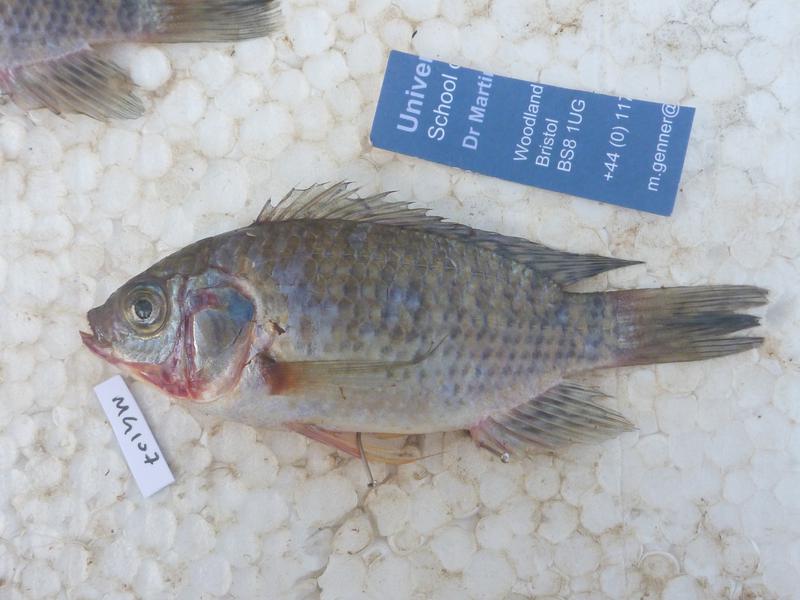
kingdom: Animalia
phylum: Chordata
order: Perciformes
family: Cichlidae
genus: Oreochromis
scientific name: Oreochromis leucostictus
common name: Blue spotted tilapia
